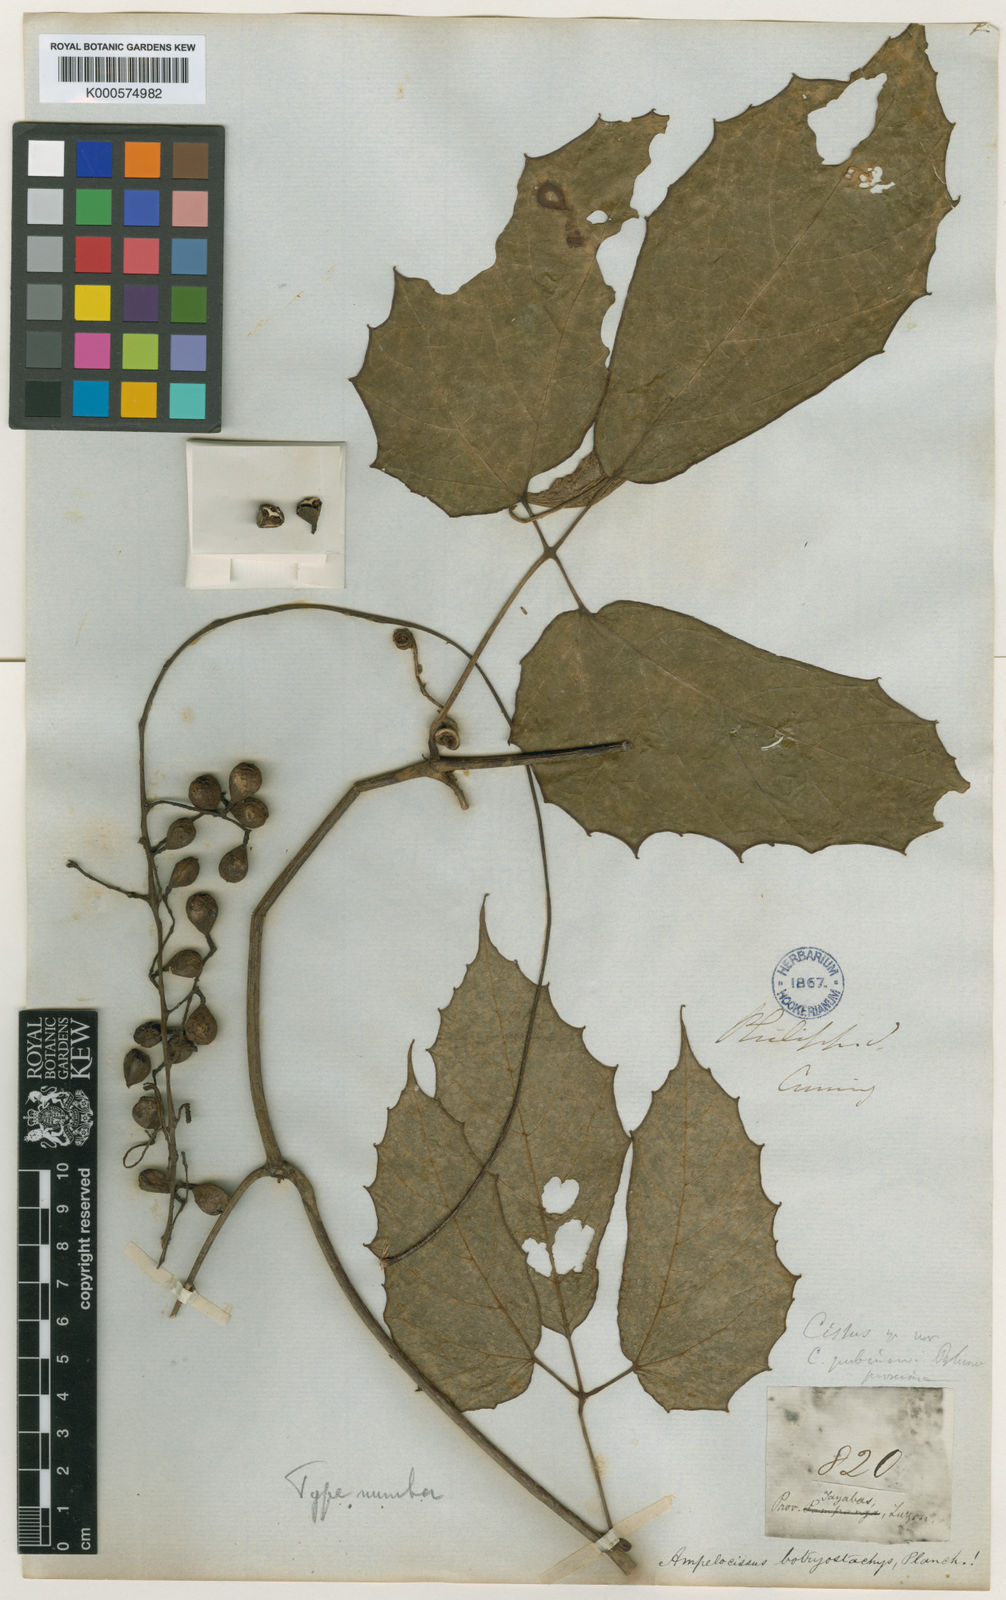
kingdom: Plantae
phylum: Tracheophyta
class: Magnoliopsida
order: Vitales
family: Vitaceae
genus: Ampelocissus
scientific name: Ampelocissus botryostachys
